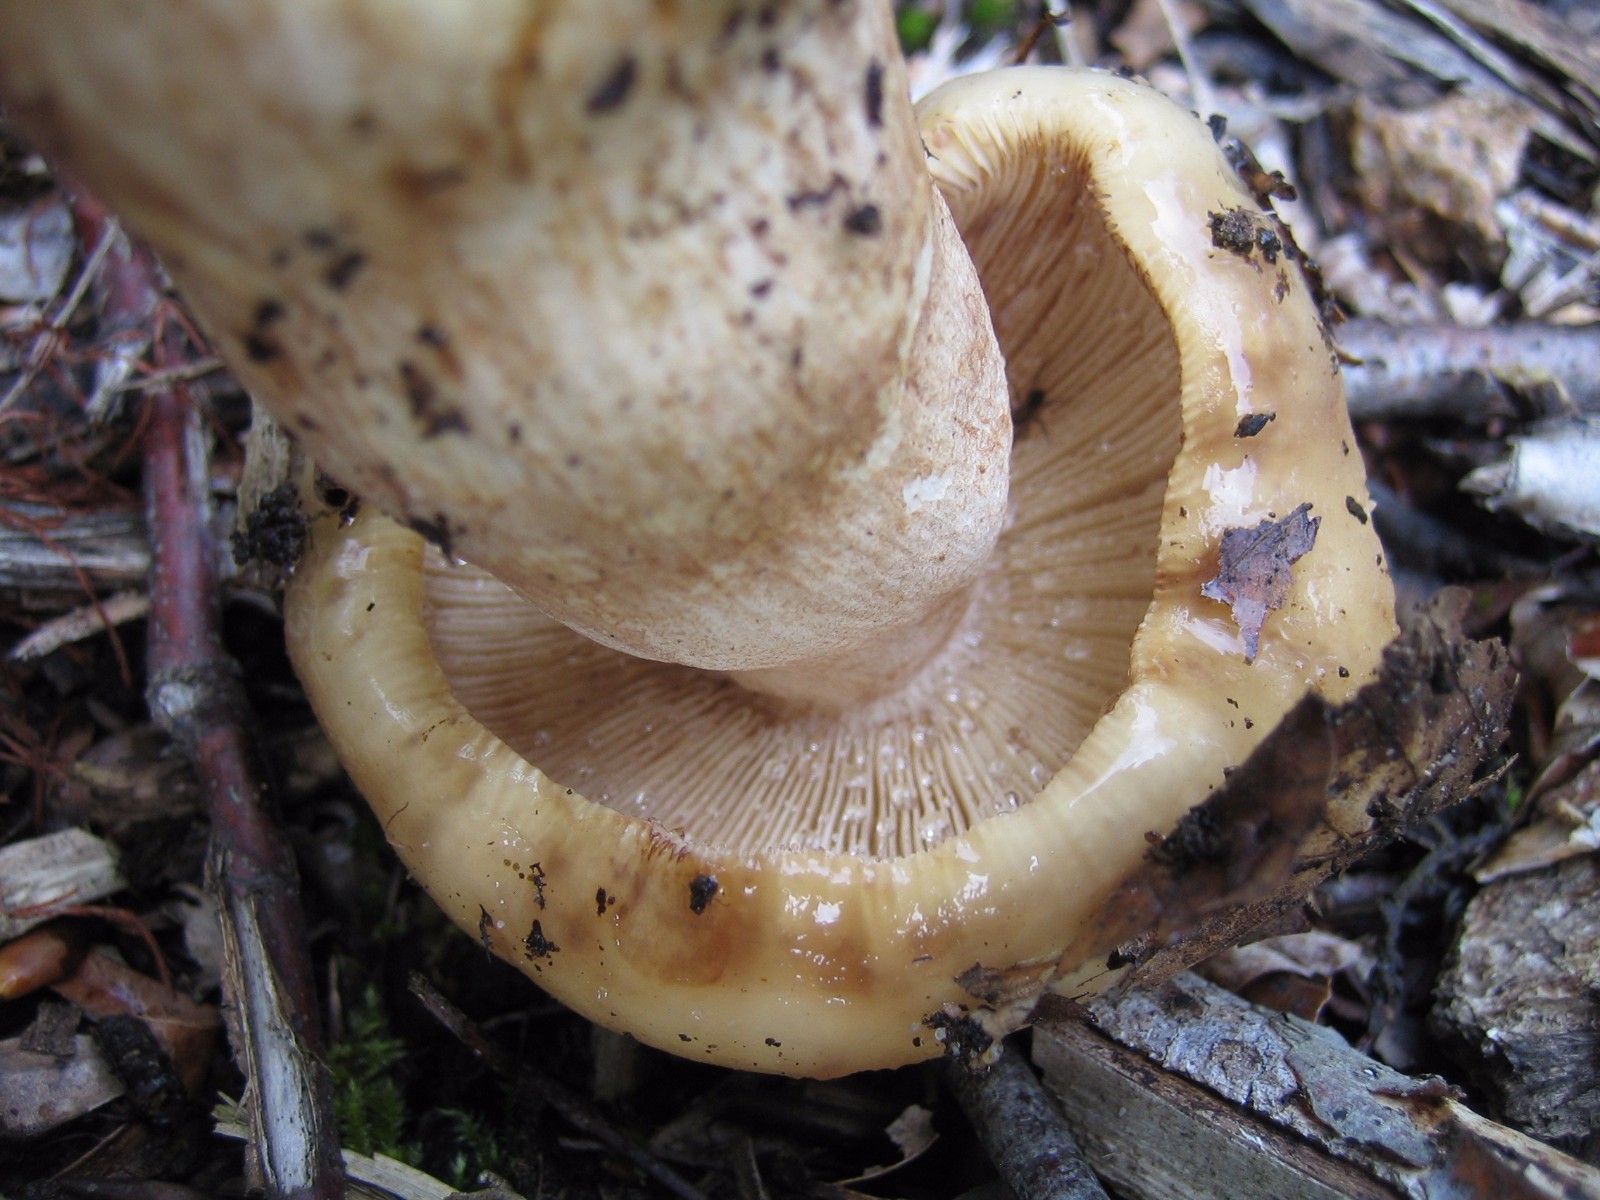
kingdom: Fungi
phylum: Basidiomycota
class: Agaricomycetes
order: Russulales
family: Russulaceae
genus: Russula
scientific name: Russula foetens
